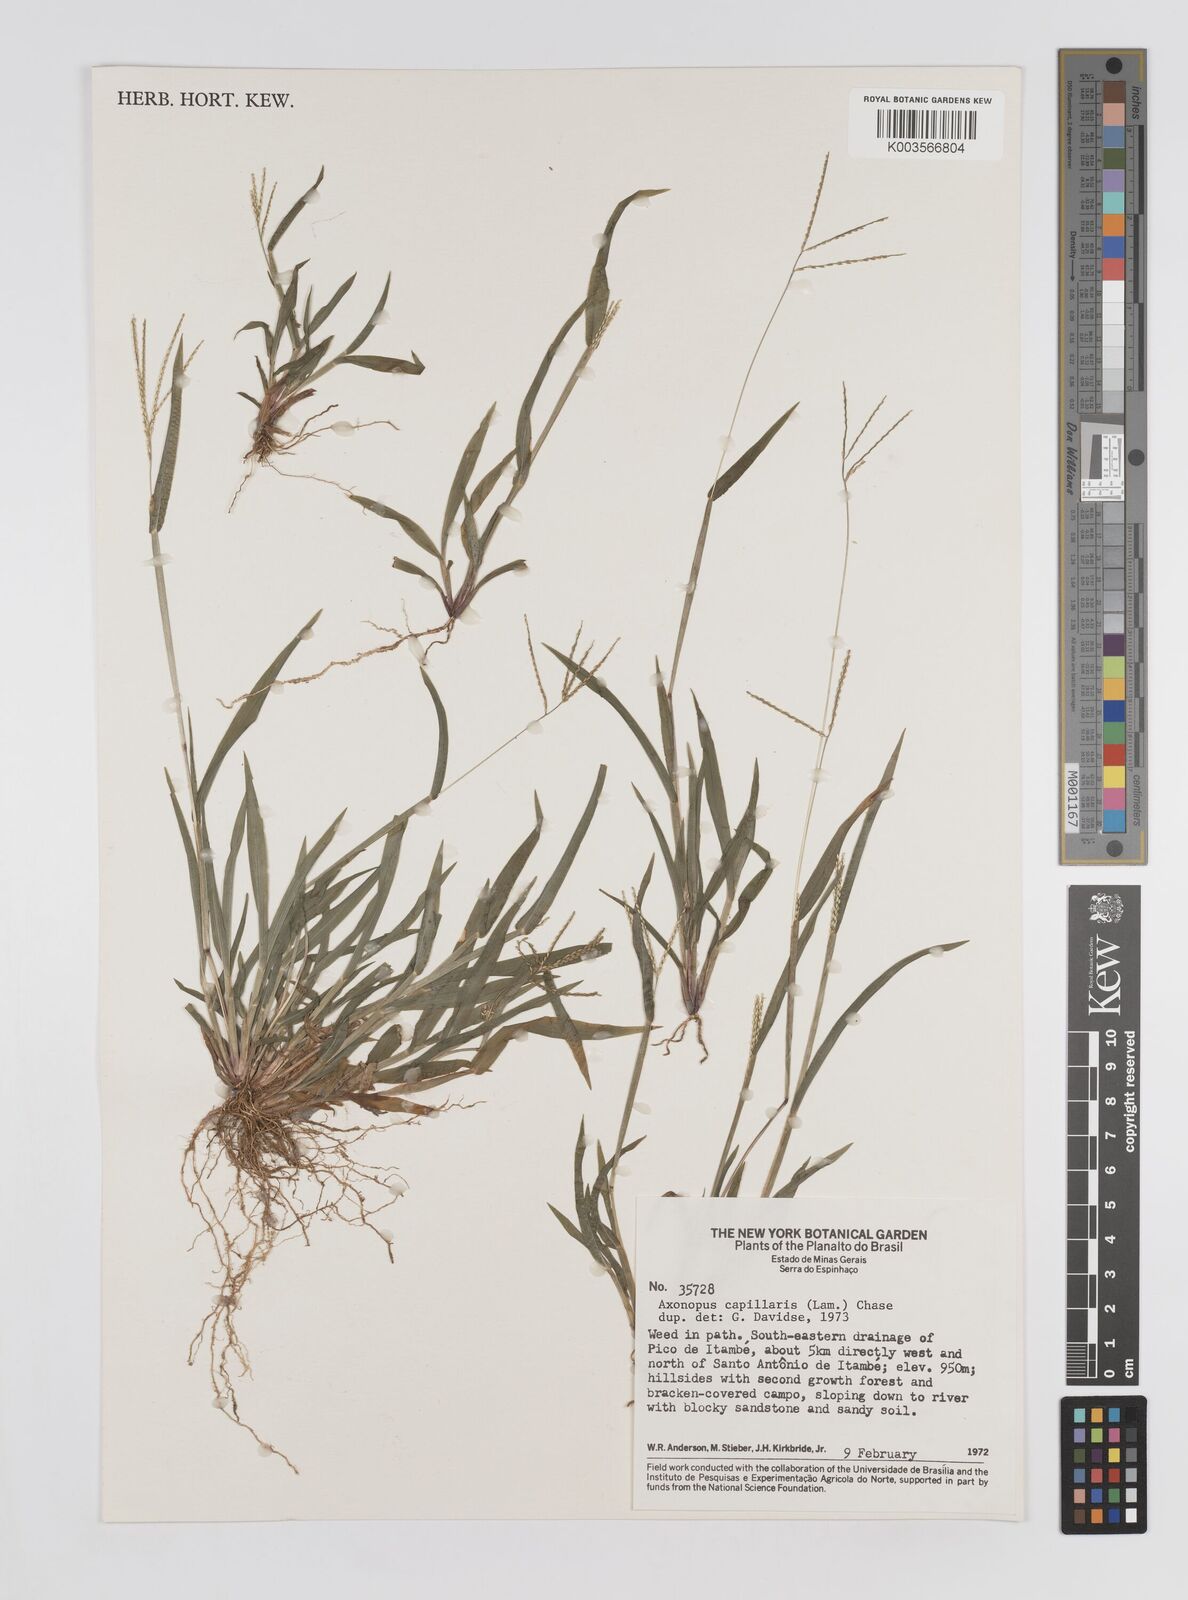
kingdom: Plantae
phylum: Tracheophyta
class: Liliopsida
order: Poales
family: Poaceae
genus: Axonopus
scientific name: Axonopus capillaris
